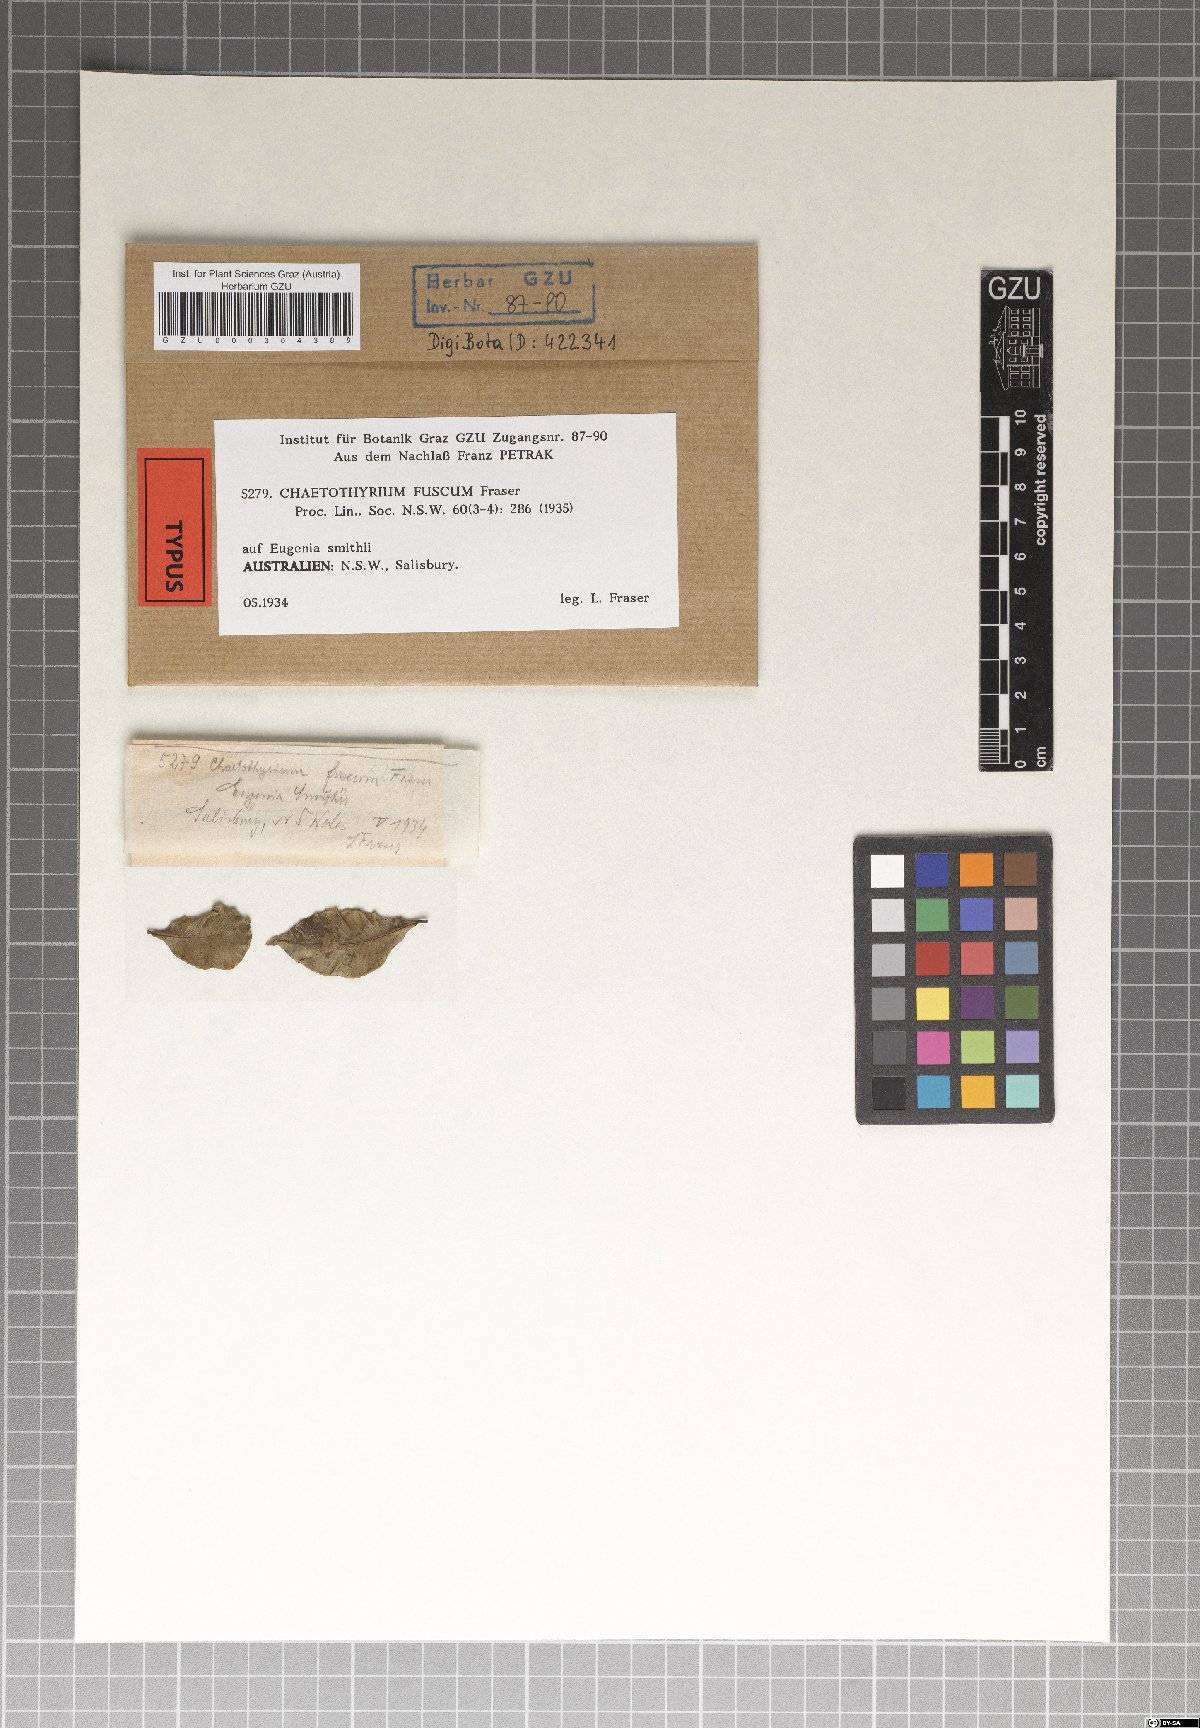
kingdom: Fungi
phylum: Ascomycota
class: Eurotiomycetes
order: Chaetothyriales
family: Chaetothyriaceae
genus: Chaetothyrium
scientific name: Chaetothyrium fuscum
